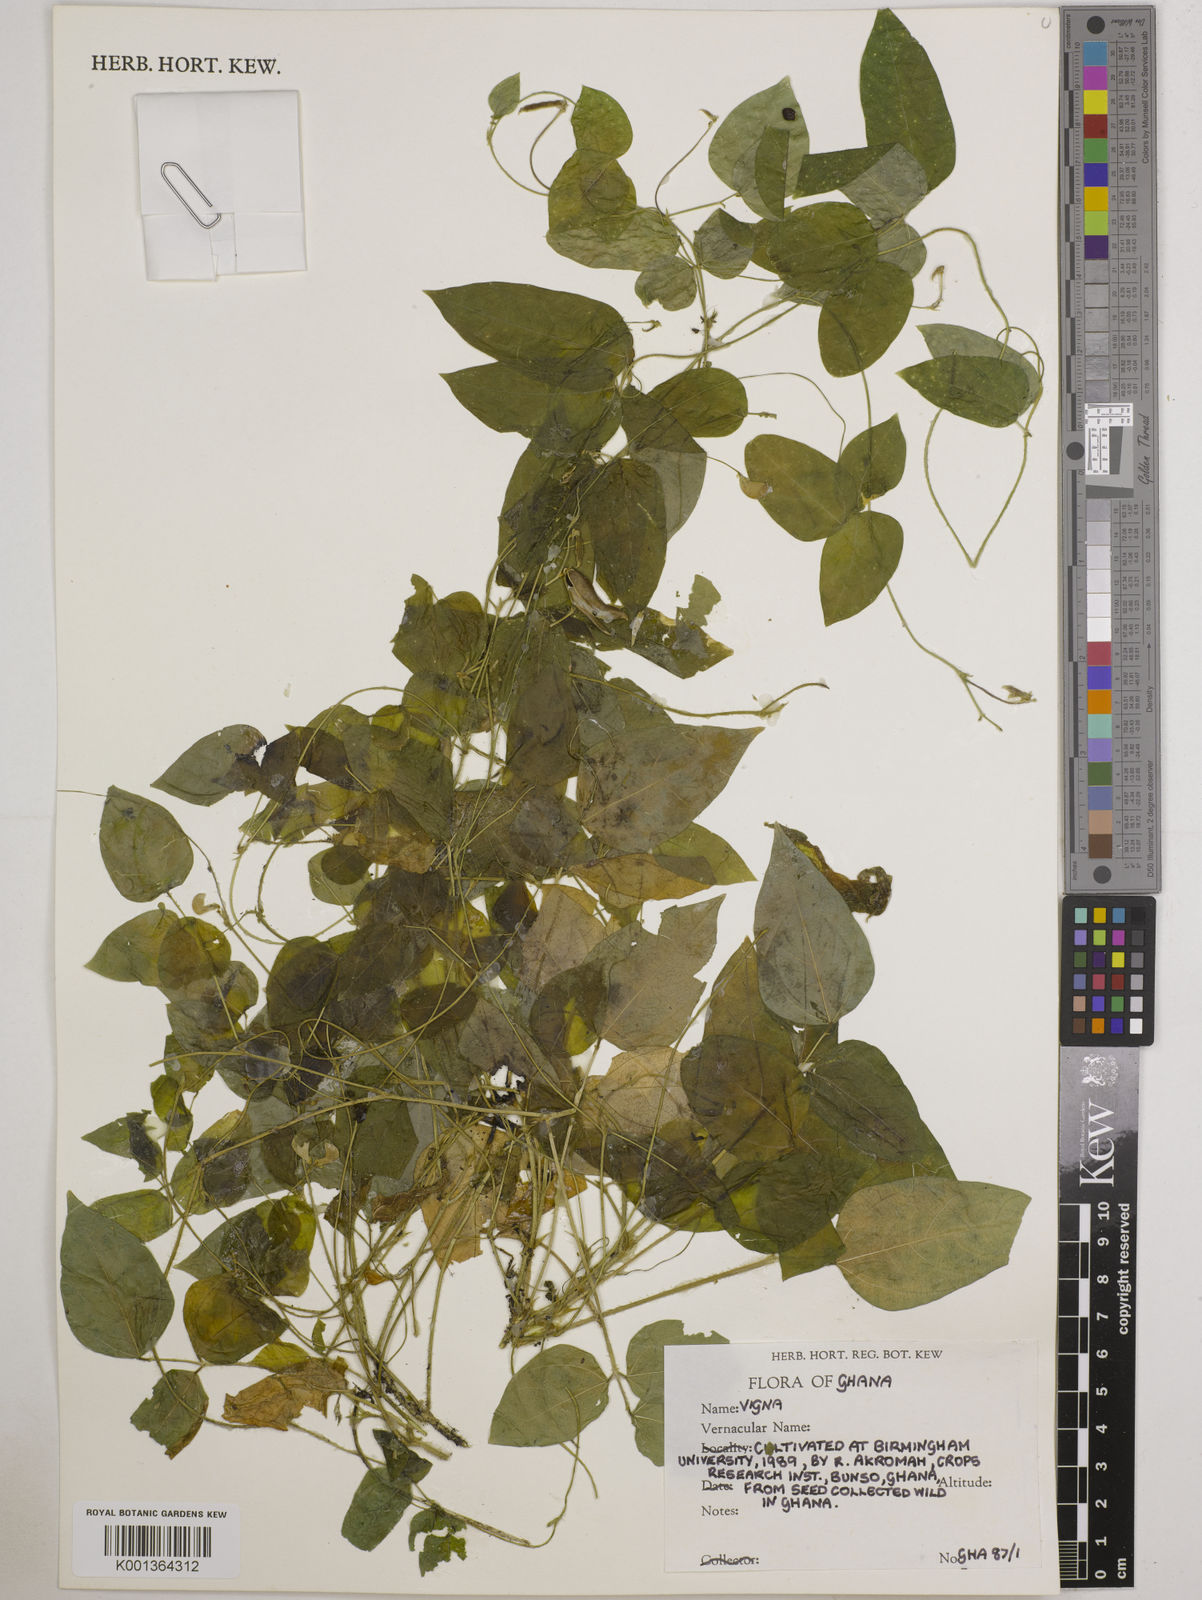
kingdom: Plantae
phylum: Tracheophyta
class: Magnoliopsida
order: Fabales
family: Fabaceae
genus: Vigna
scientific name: Vigna
